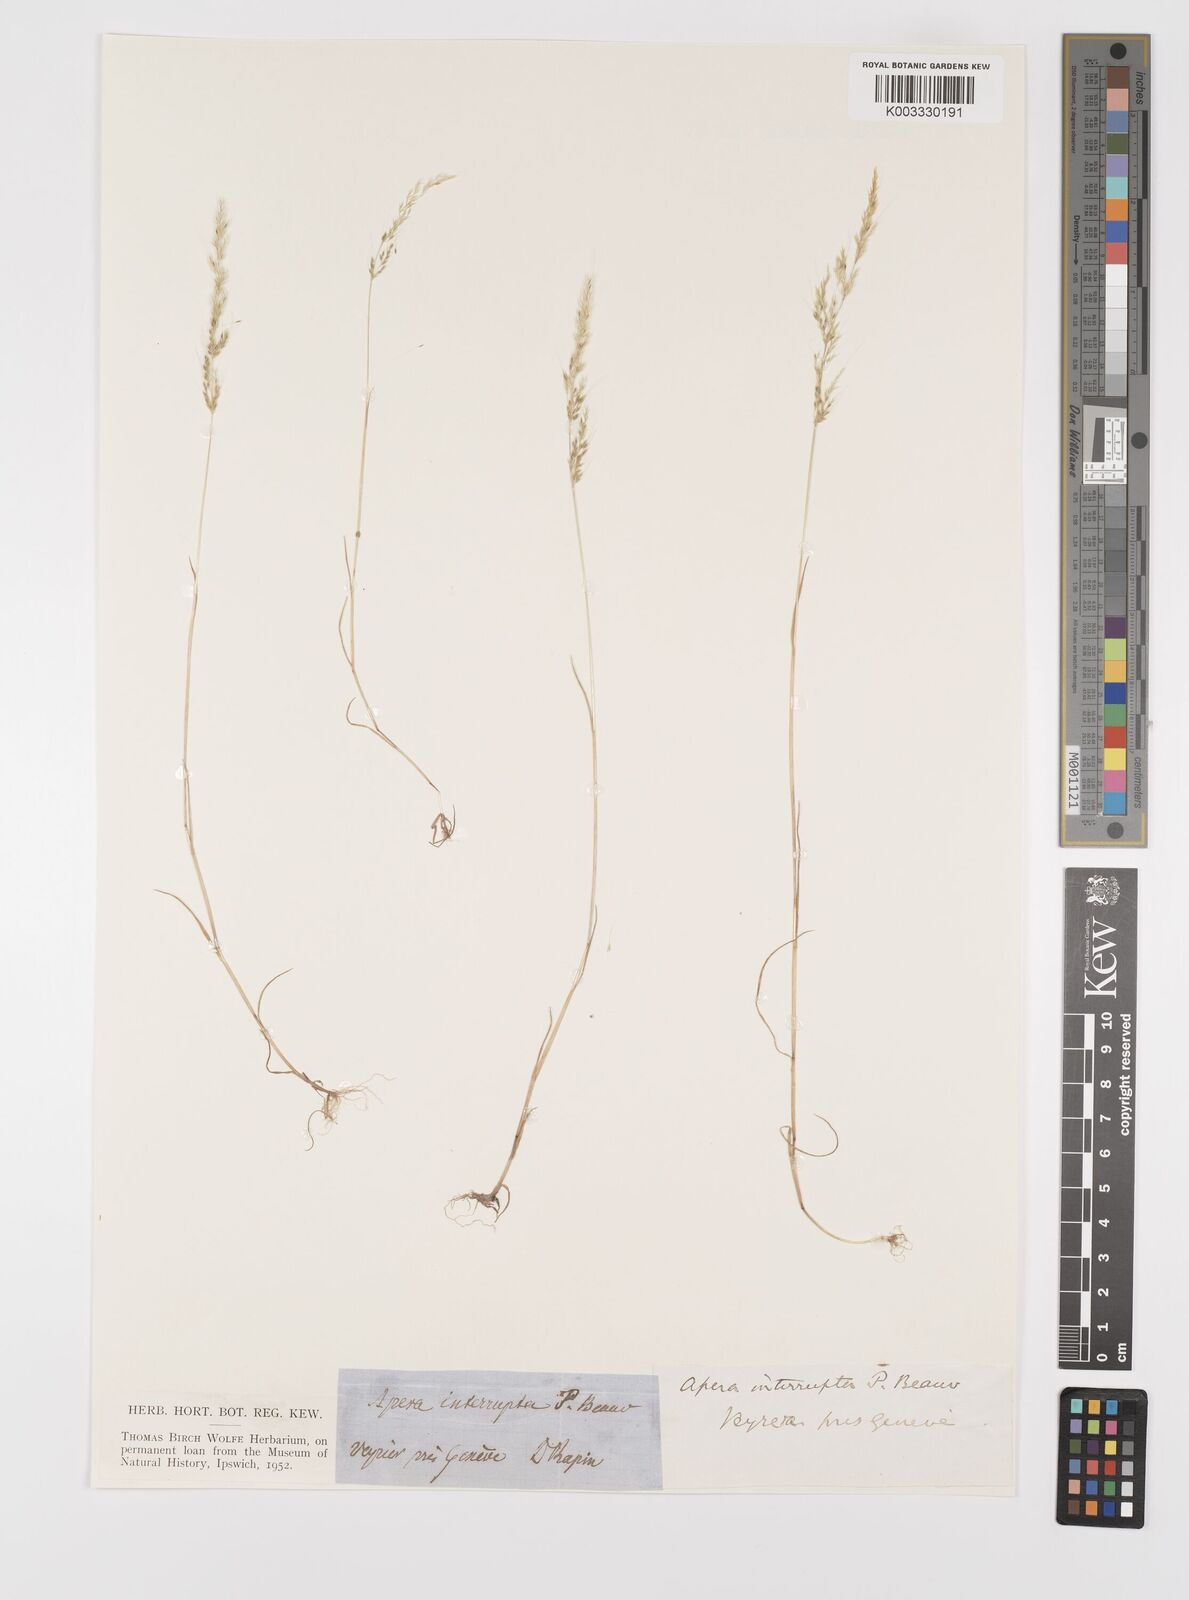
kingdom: Plantae
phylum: Tracheophyta
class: Liliopsida
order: Poales
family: Poaceae
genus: Apera
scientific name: Apera interrupta
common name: Dense silky-bent
